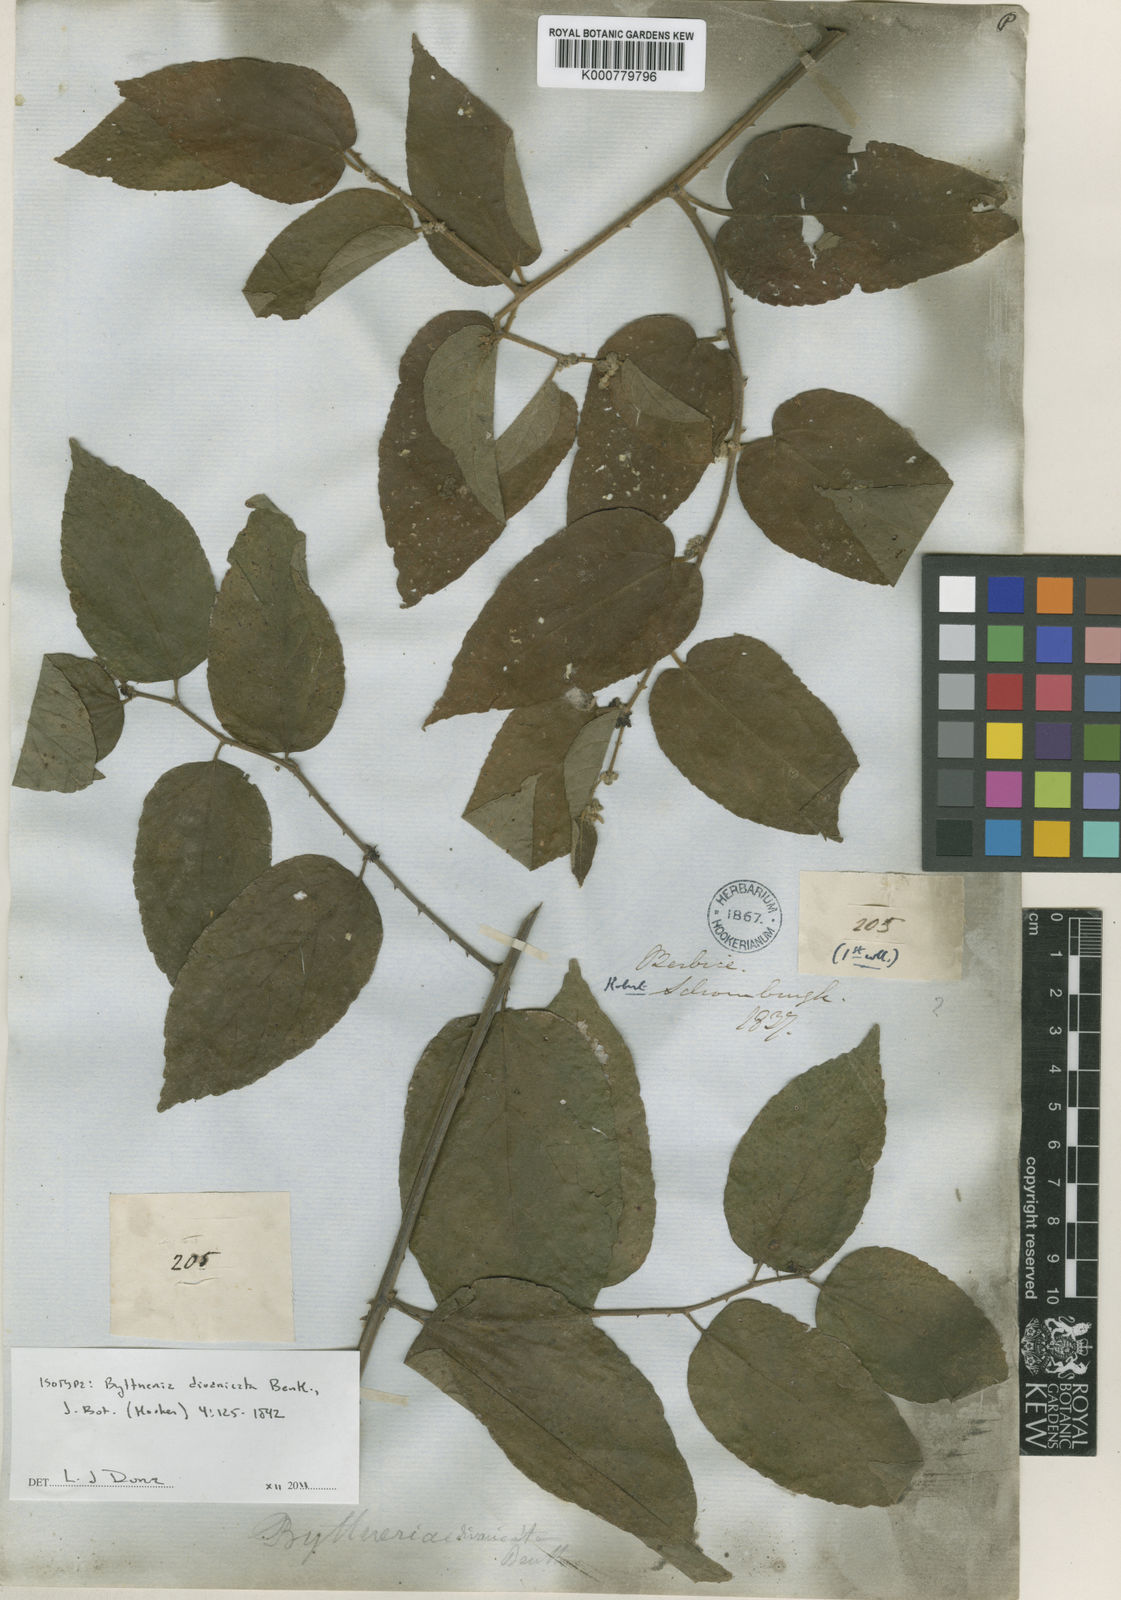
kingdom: Plantae
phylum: Tracheophyta
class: Magnoliopsida
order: Malvales
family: Malvaceae
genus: Byttneria
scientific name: Byttneria divaricata
